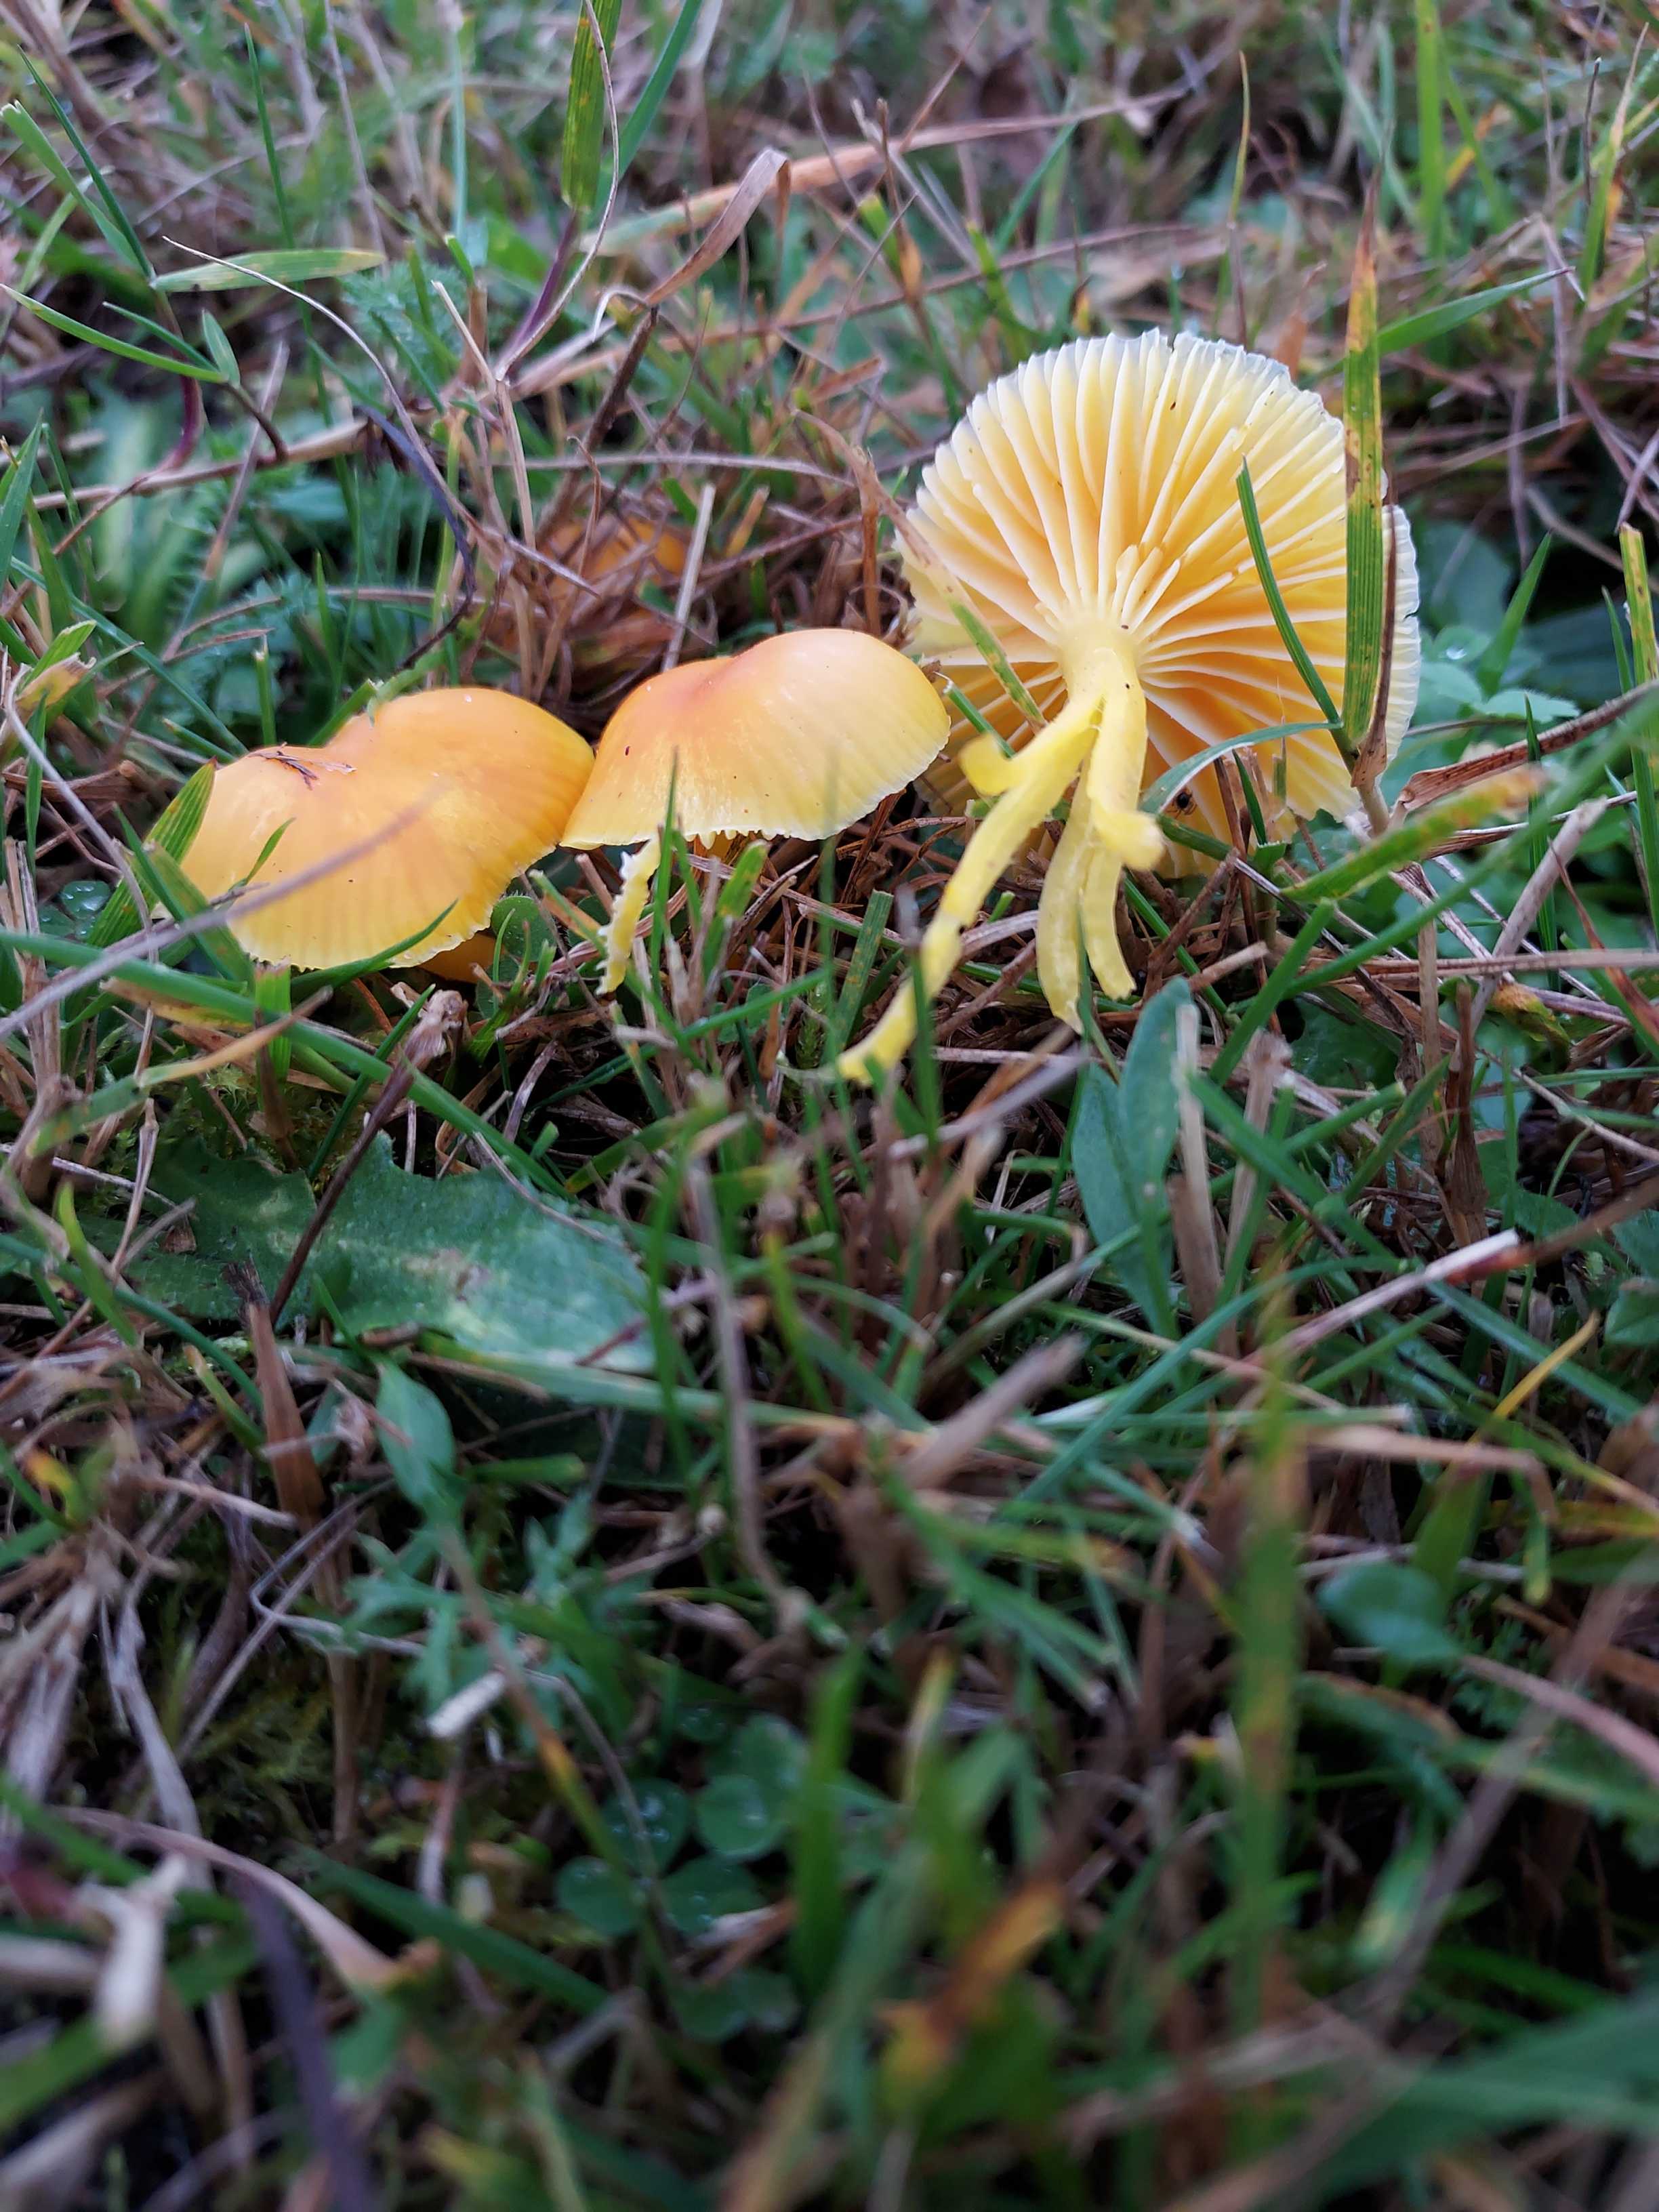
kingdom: Fungi
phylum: Basidiomycota
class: Agaricomycetes
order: Agaricales
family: Hygrophoraceae
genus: Hygrocybe
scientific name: Hygrocybe ceracea
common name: voksgul vokshat
